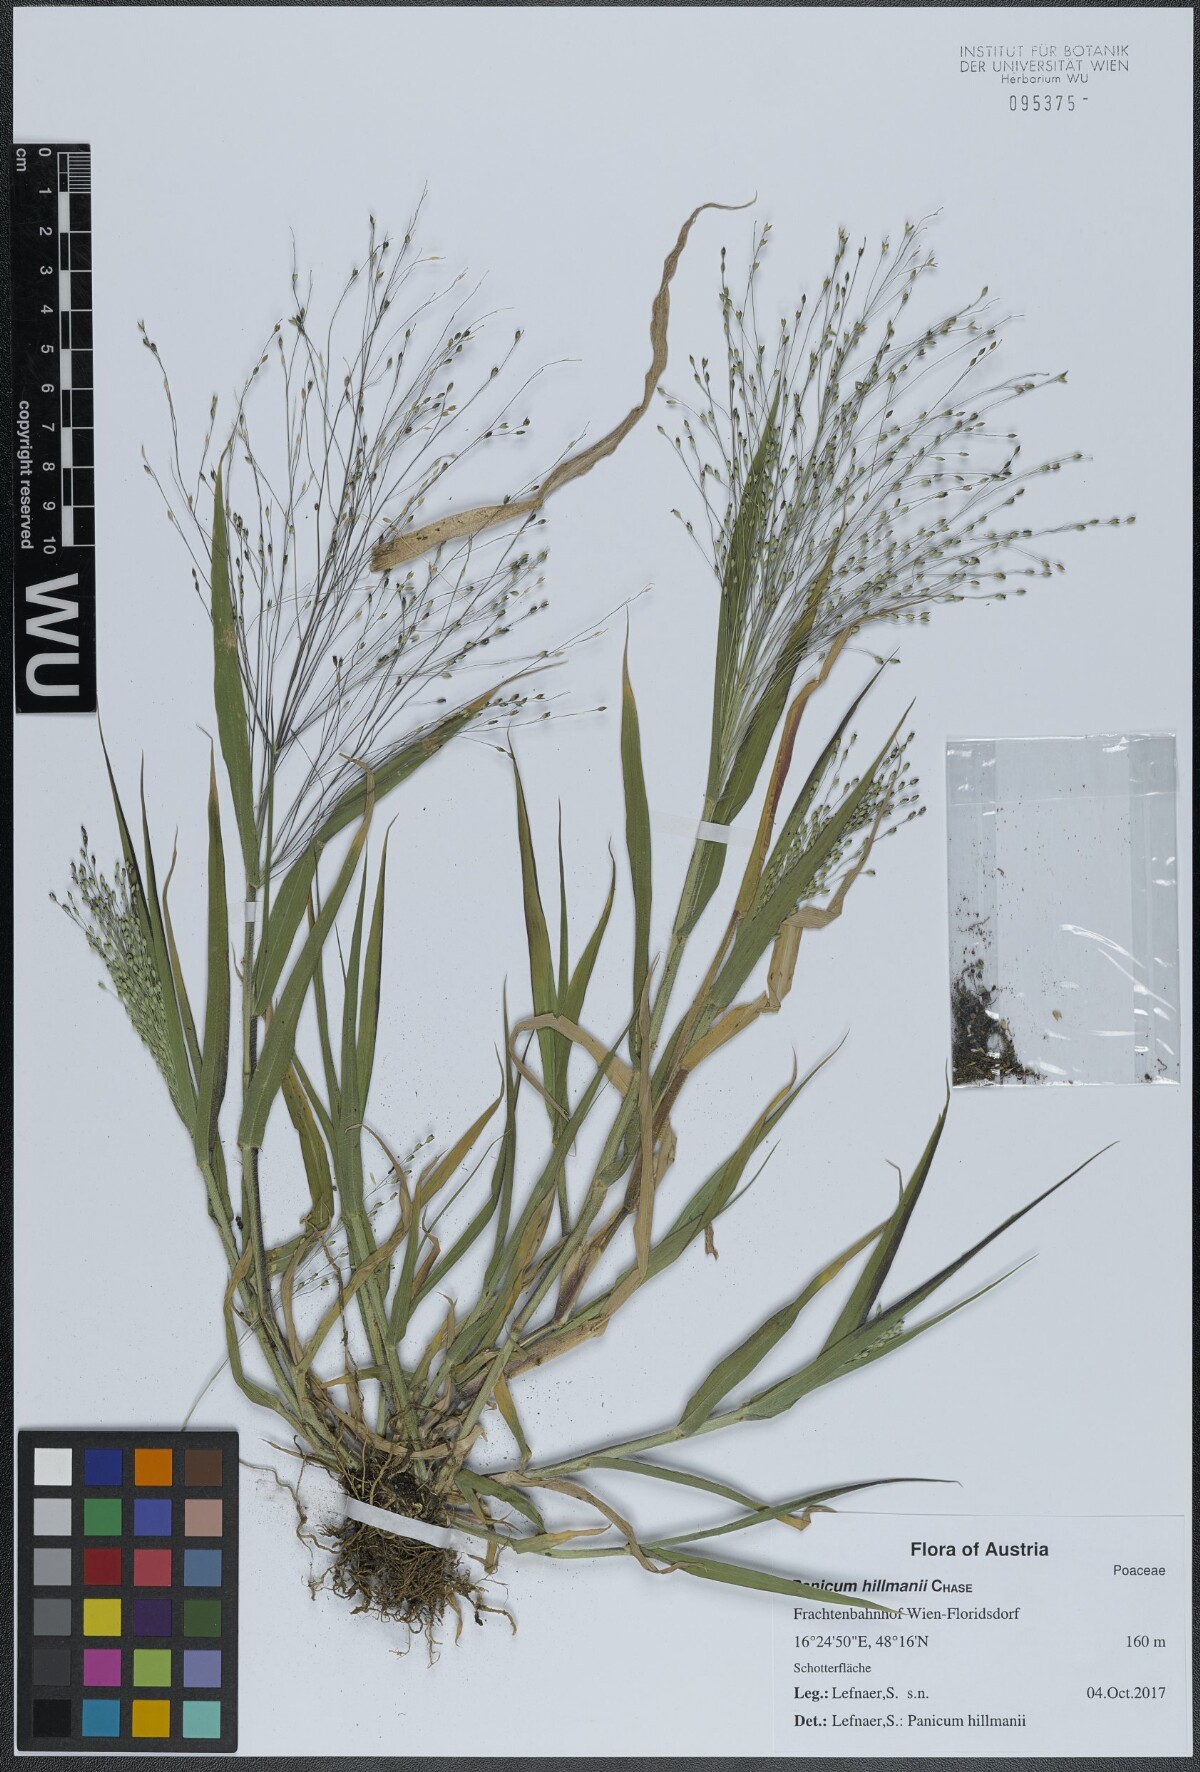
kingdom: Plantae
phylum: Tracheophyta
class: Liliopsida
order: Poales
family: Poaceae
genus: Panicum
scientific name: Panicum hillmanii
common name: Hillman's panicum
